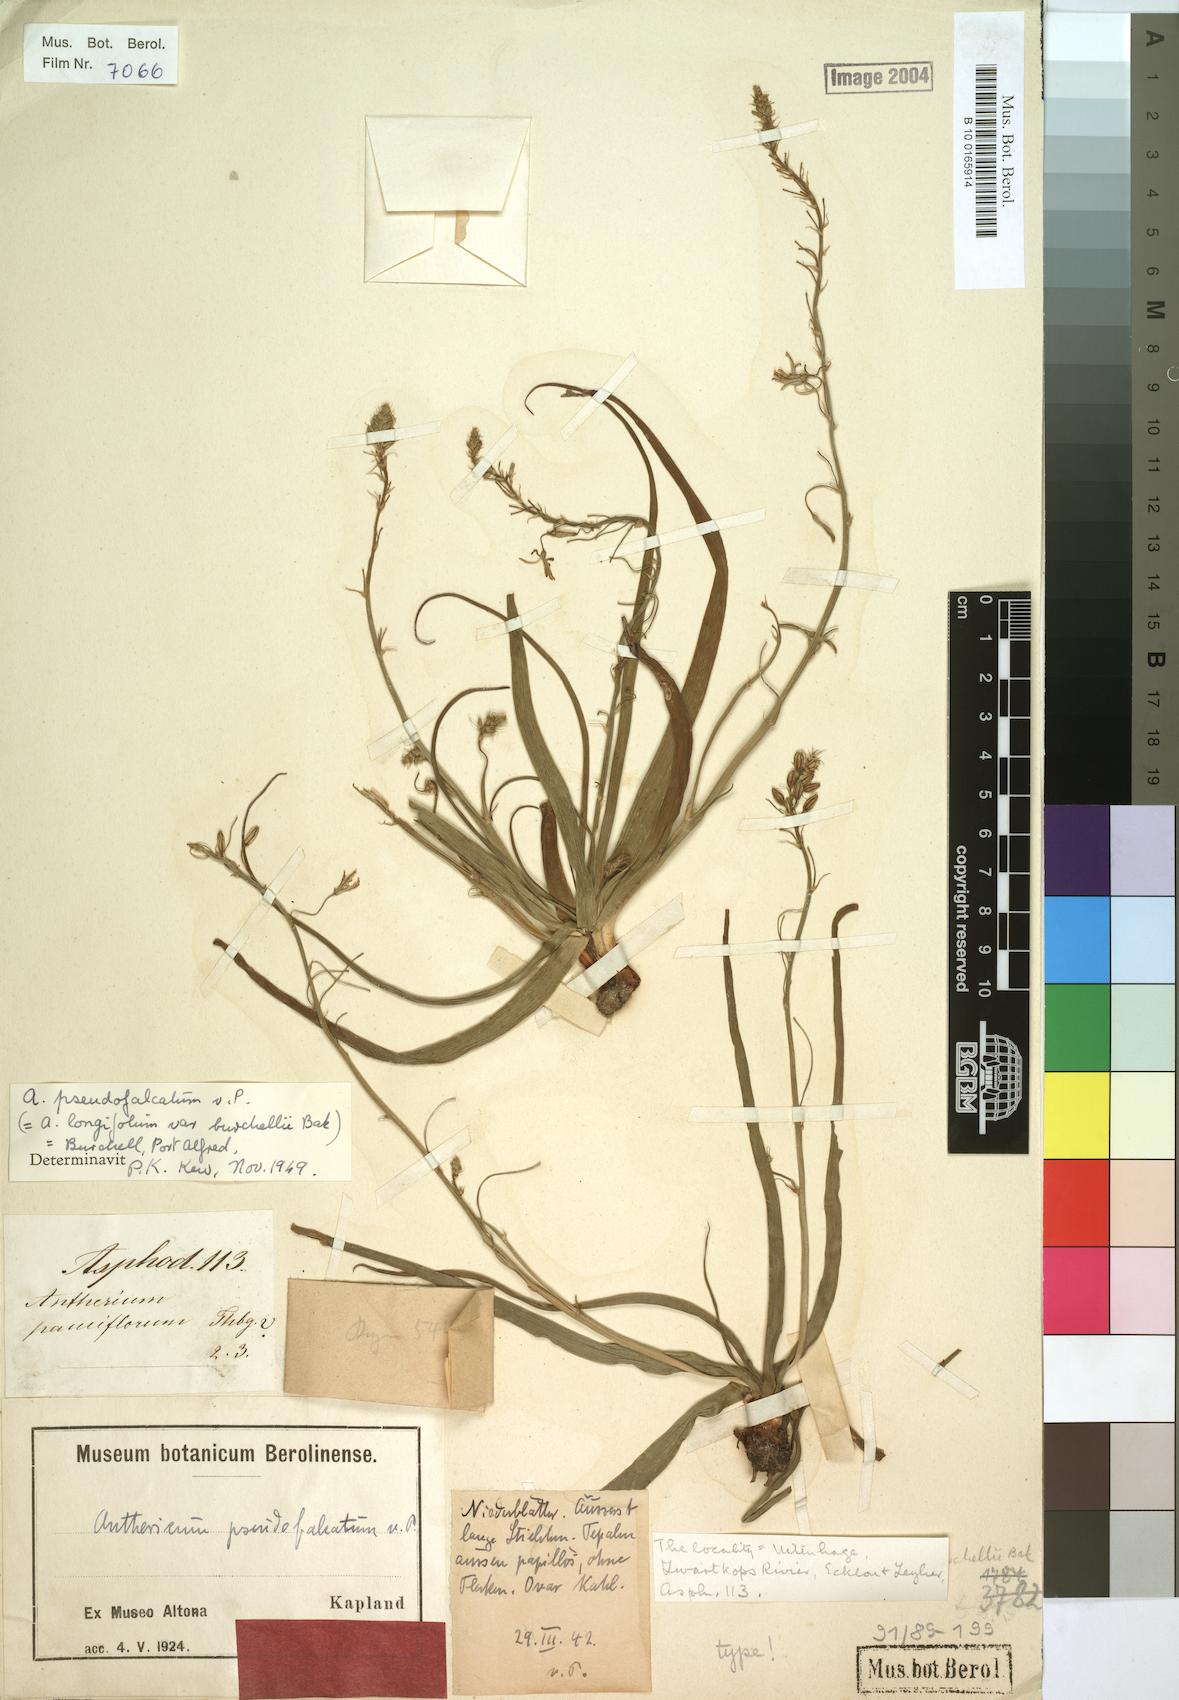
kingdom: Plantae
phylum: Tracheophyta
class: Liliopsida
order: Asparagales
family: Asphodelaceae
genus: Trachyandra
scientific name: Trachyandra affinis
